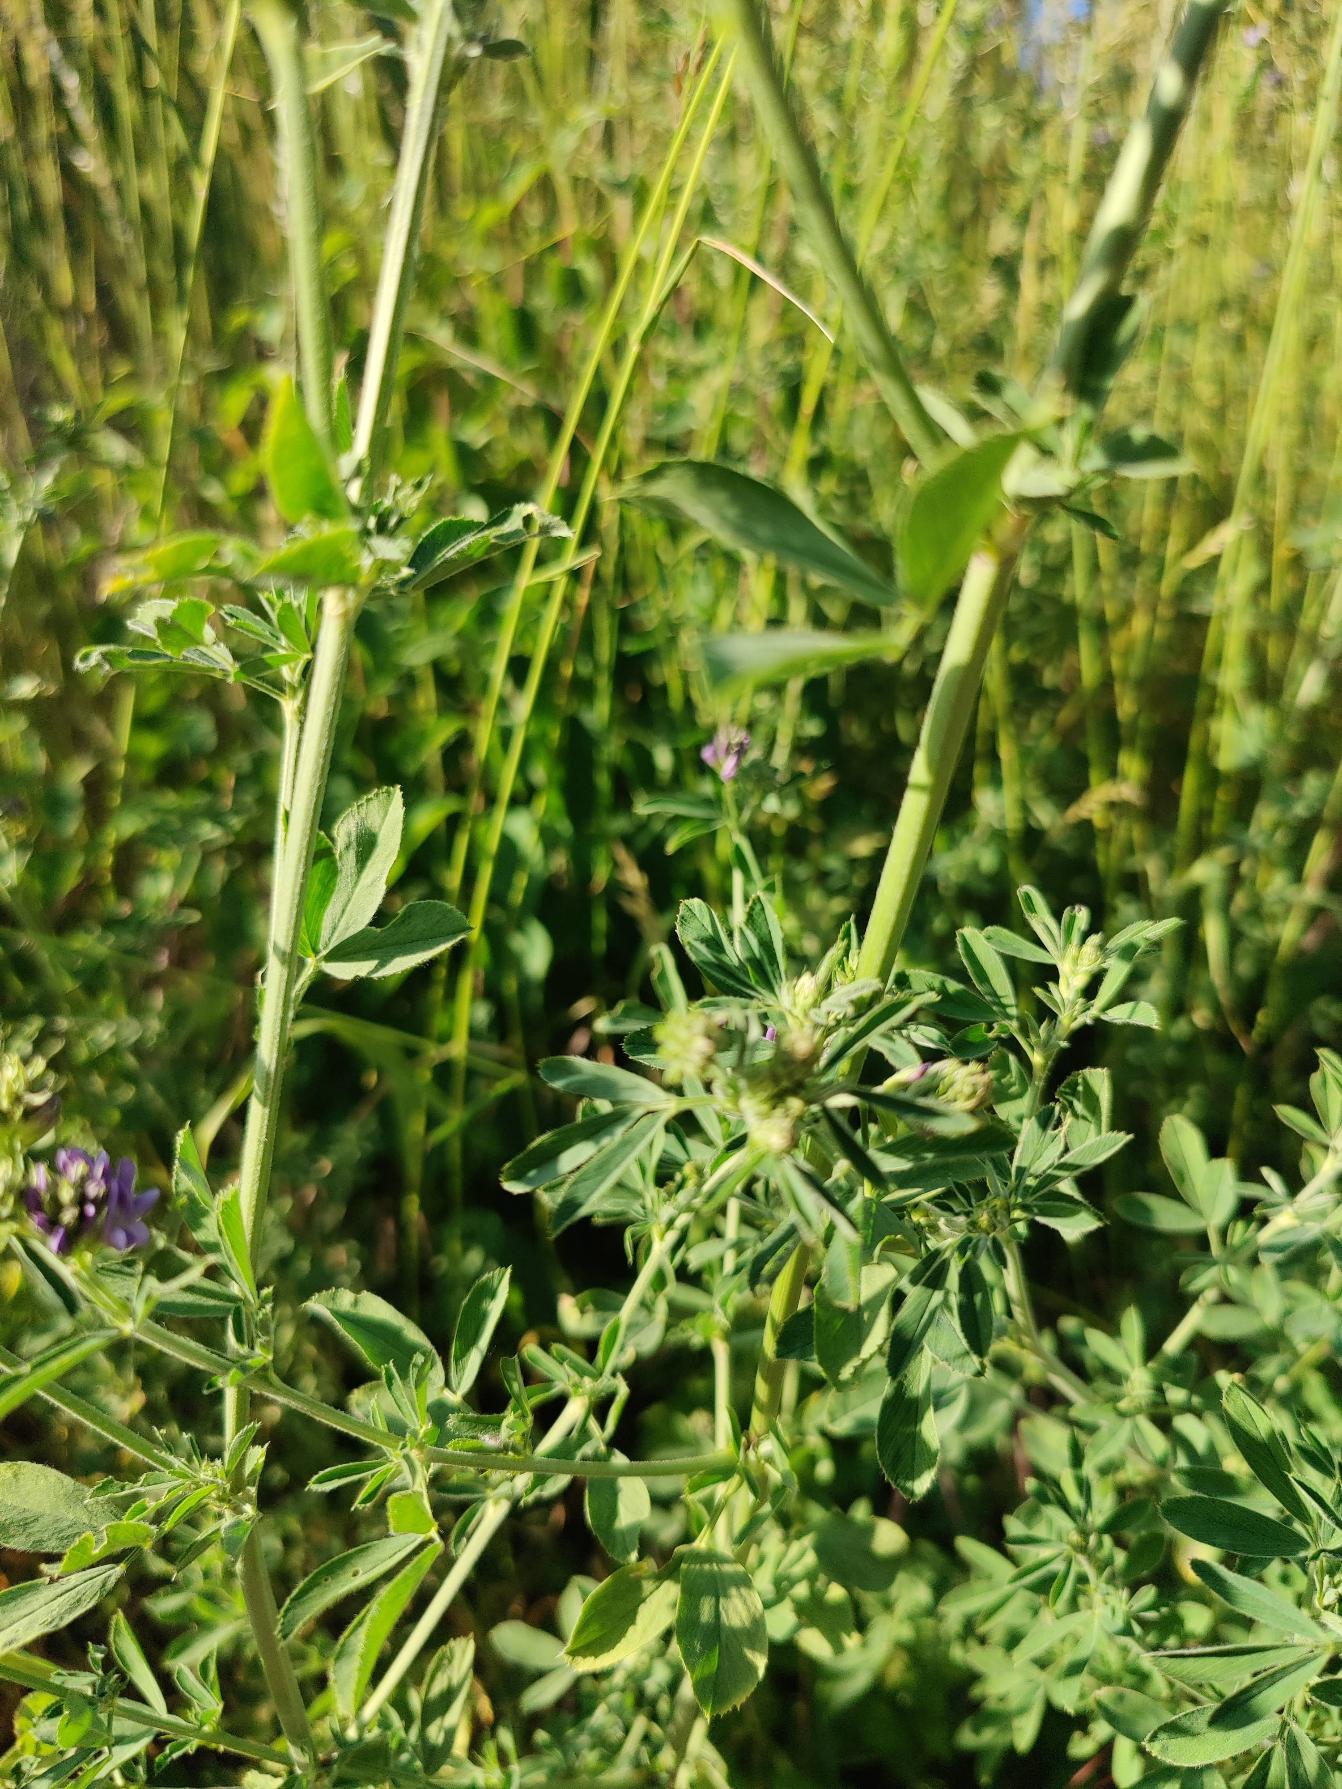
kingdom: Plantae
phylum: Tracheophyta
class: Magnoliopsida
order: Fabales
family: Fabaceae
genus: Medicago
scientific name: Medicago sativa
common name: Lucerne
